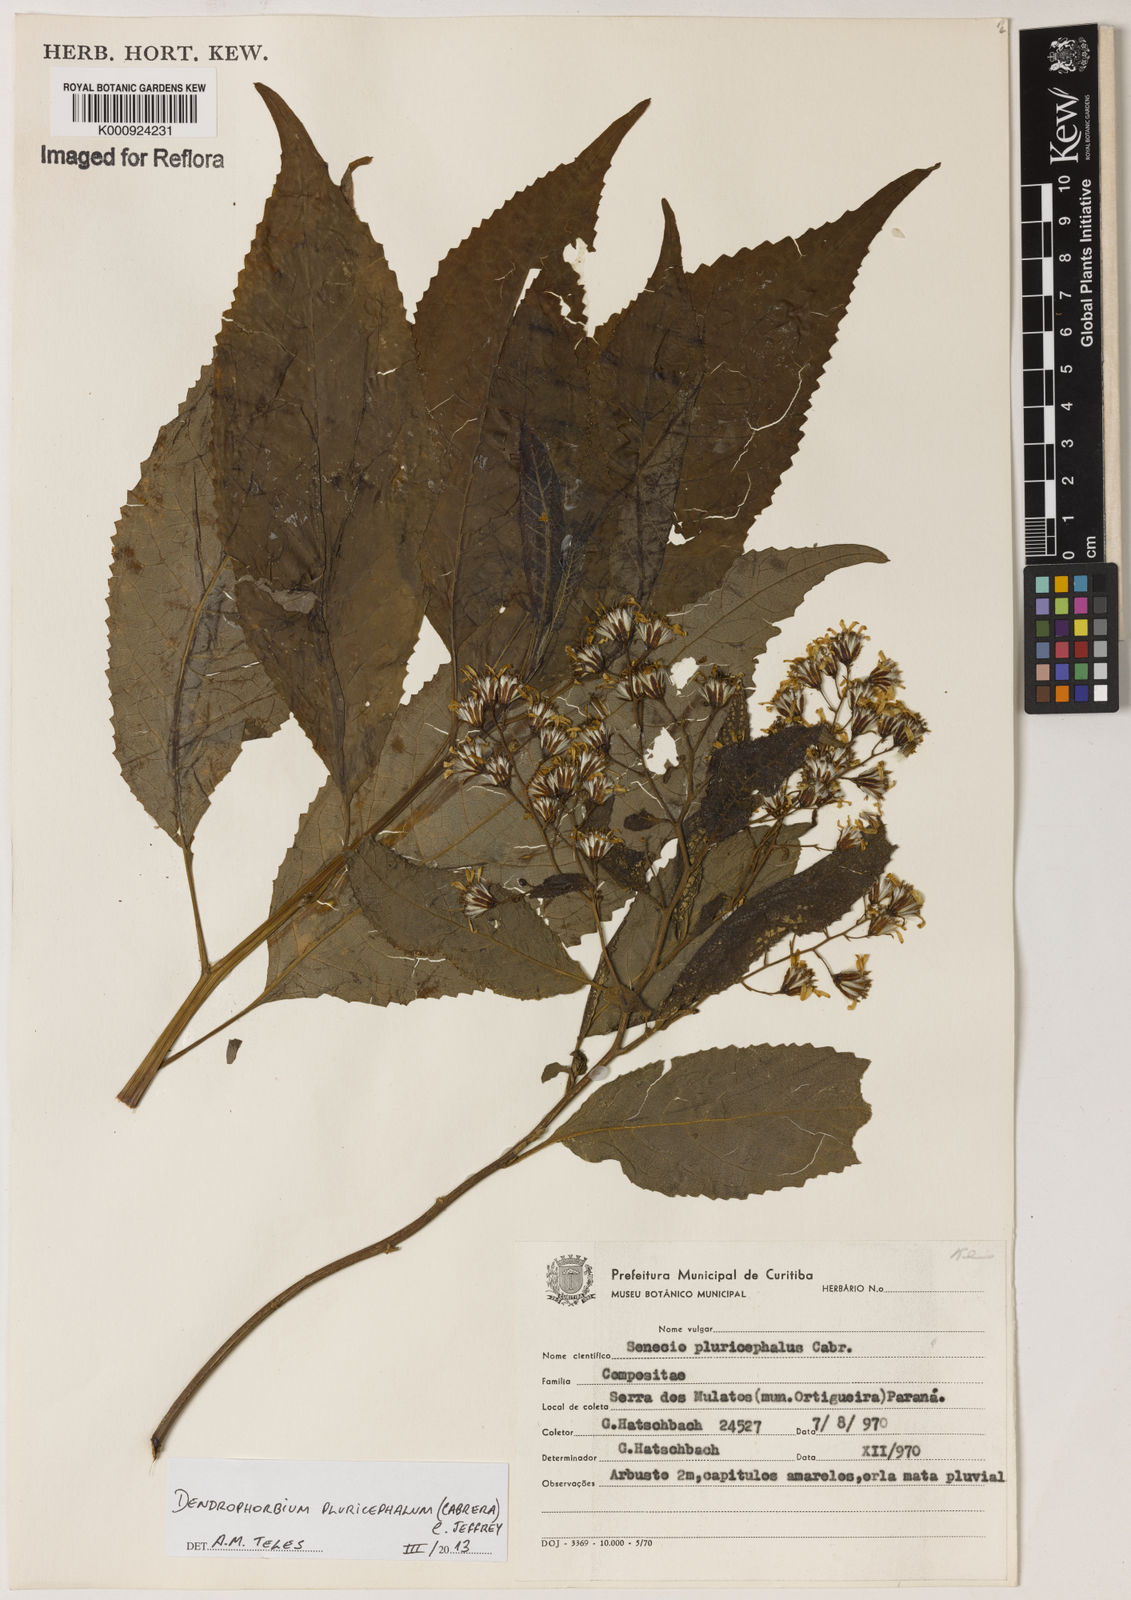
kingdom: Plantae
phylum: Tracheophyta
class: Magnoliopsida
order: Asterales
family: Asteraceae
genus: Dendrophorbium
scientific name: Dendrophorbium pluricephalum
